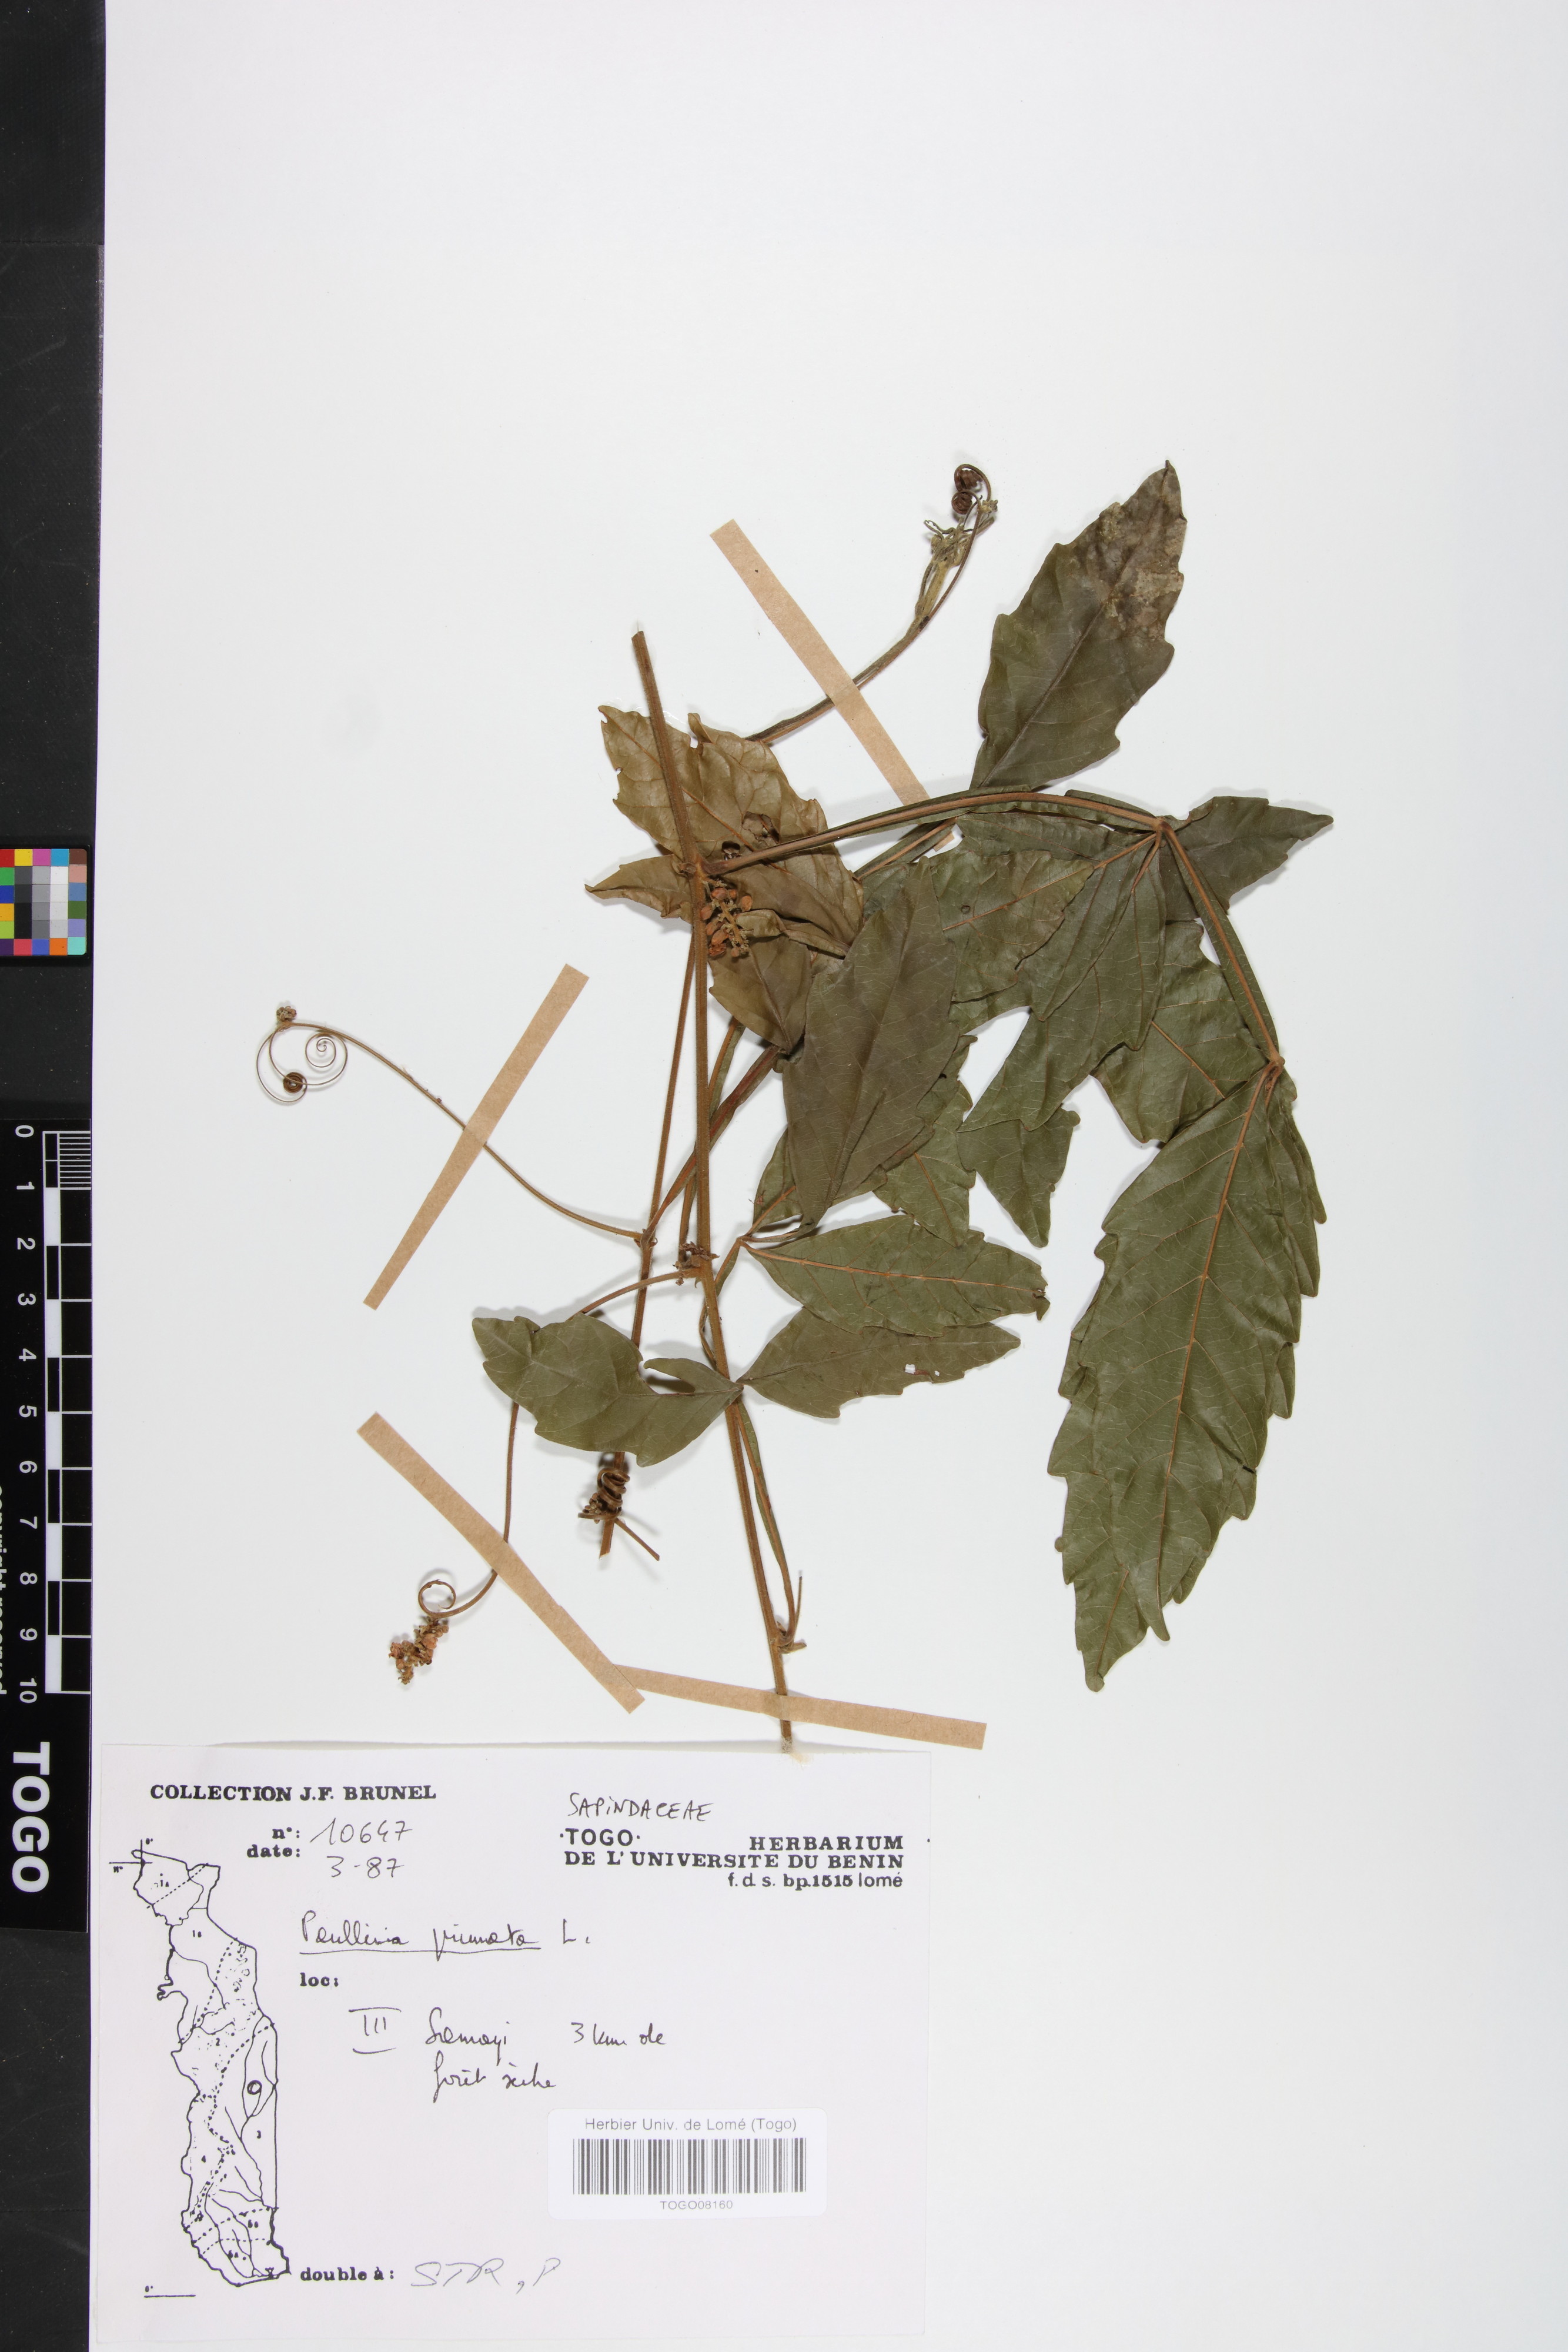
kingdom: Plantae
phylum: Tracheophyta
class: Magnoliopsida
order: Sapindales
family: Sapindaceae
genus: Paullinia
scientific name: Paullinia pinnata
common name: Barbasco
